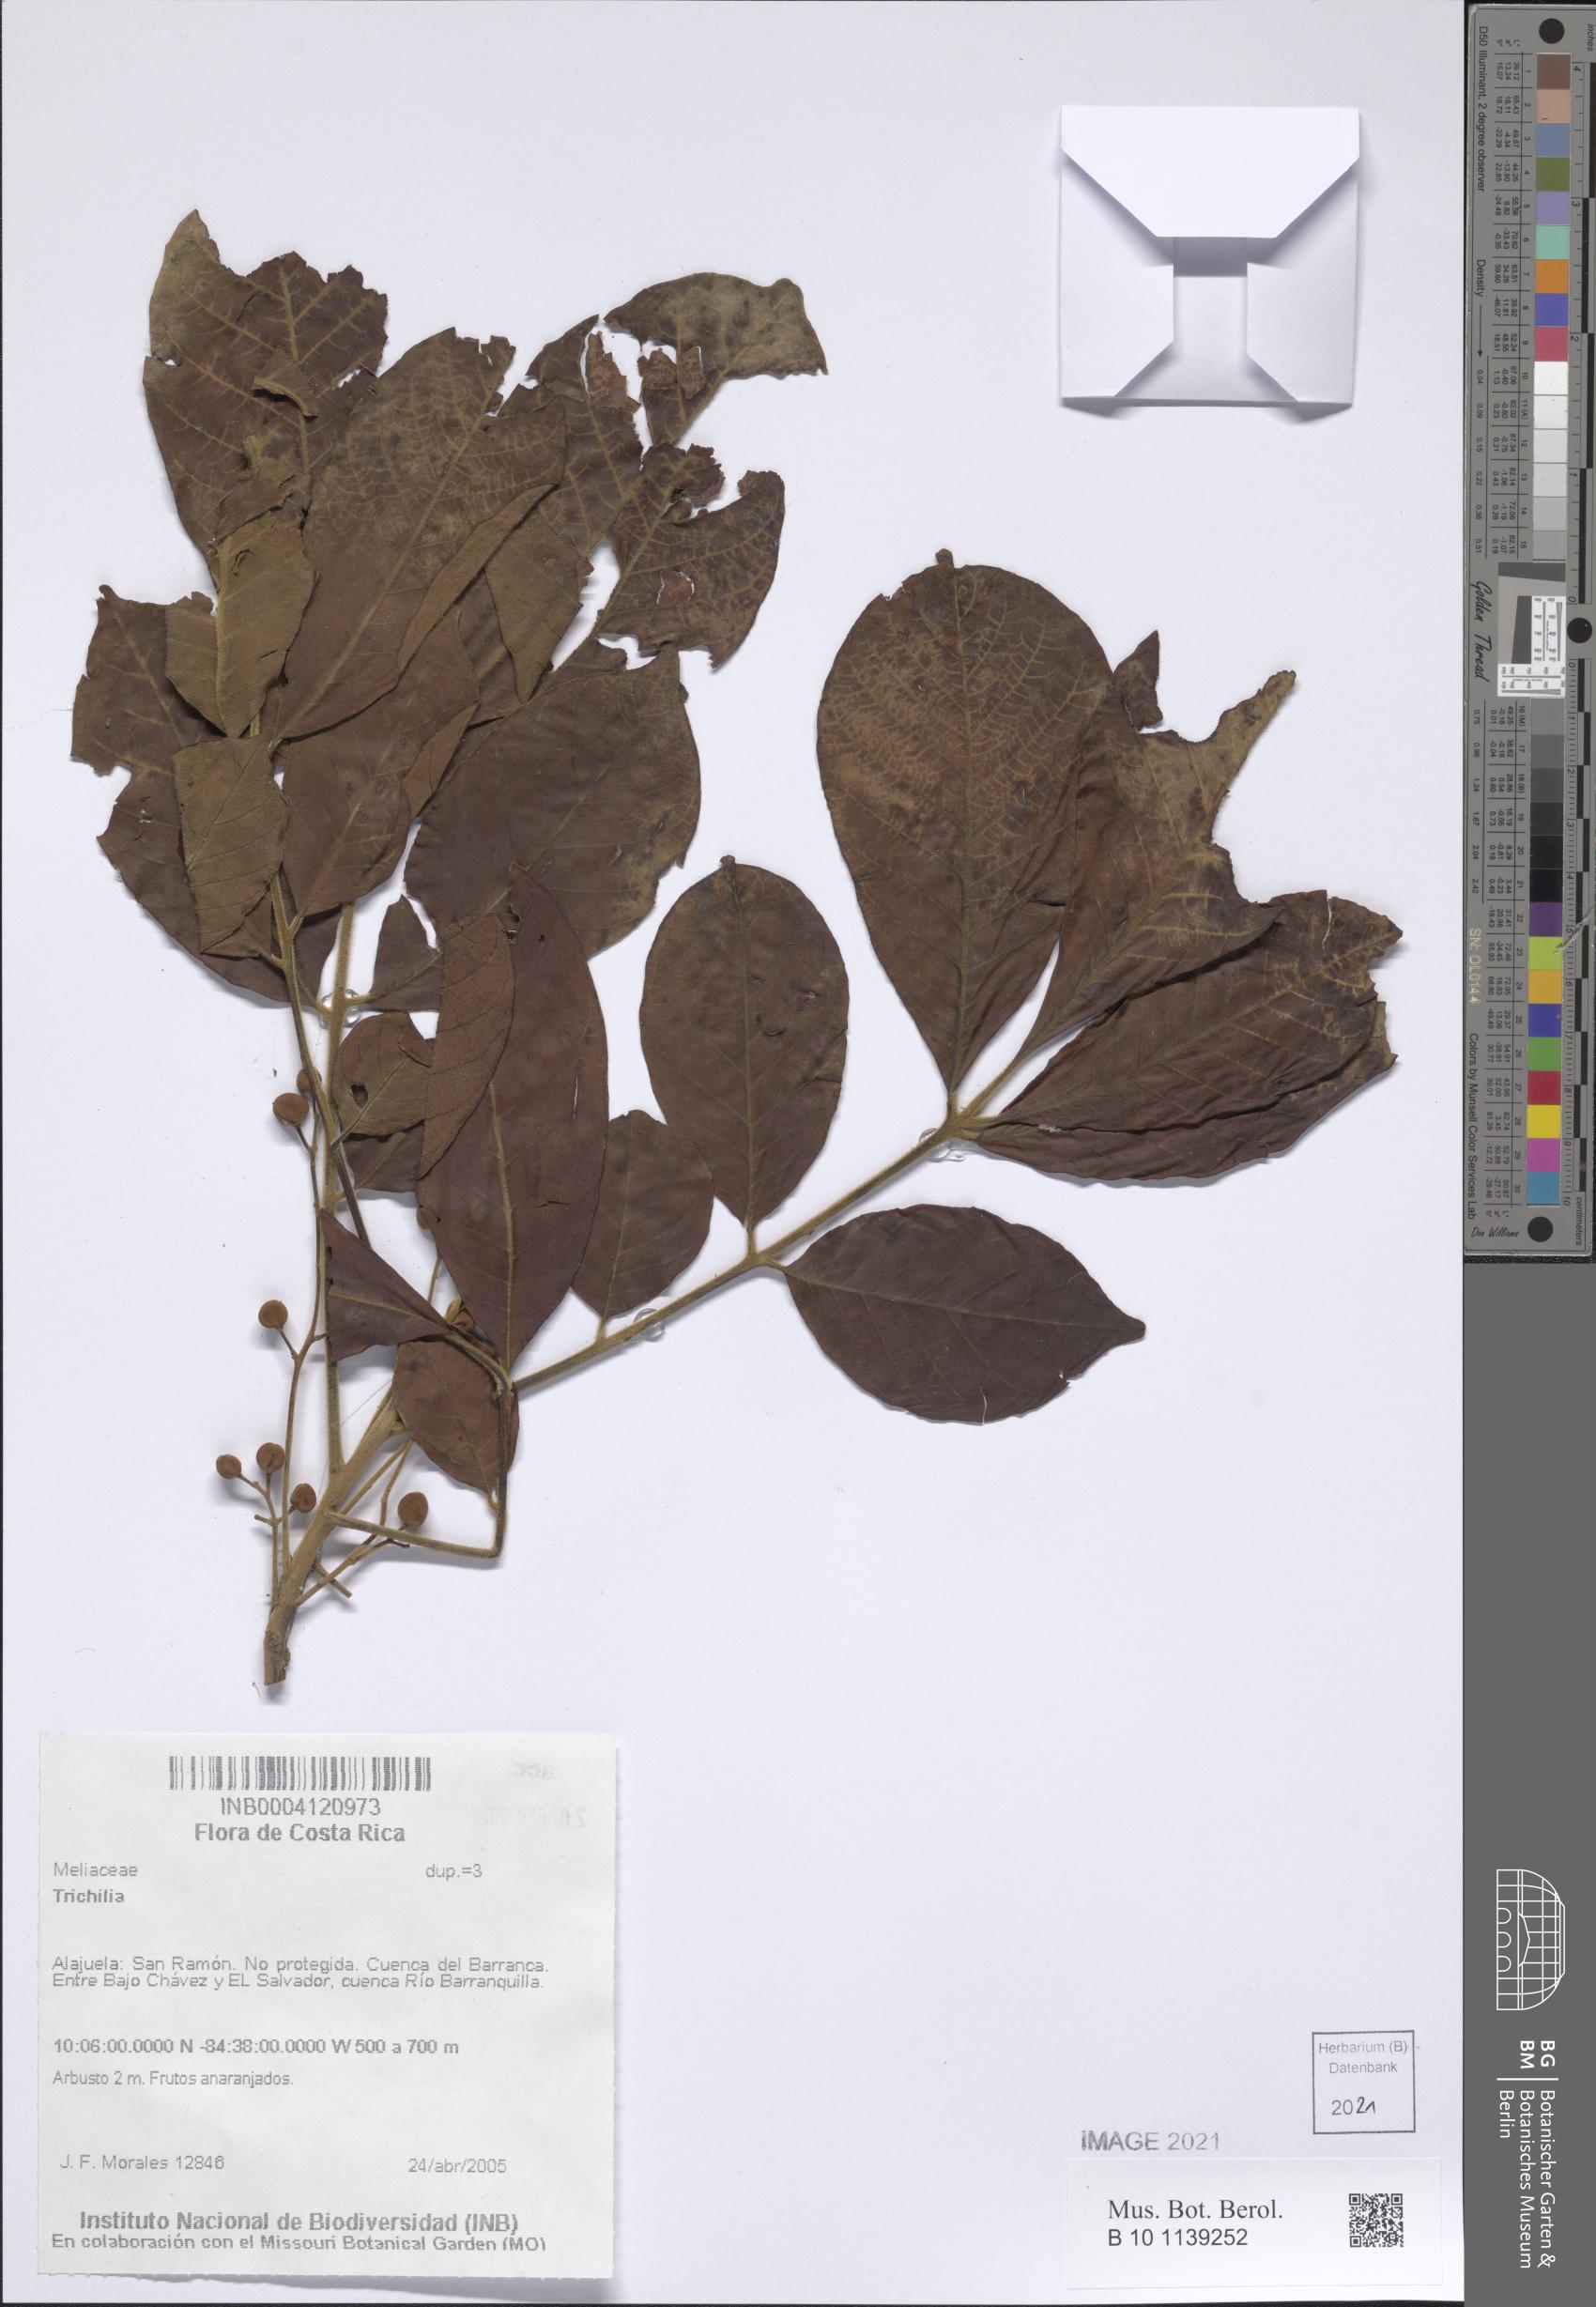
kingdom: Plantae
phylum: Tracheophyta
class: Magnoliopsida
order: Sapindales
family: Meliaceae
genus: Trichilia
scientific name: Trichilia
